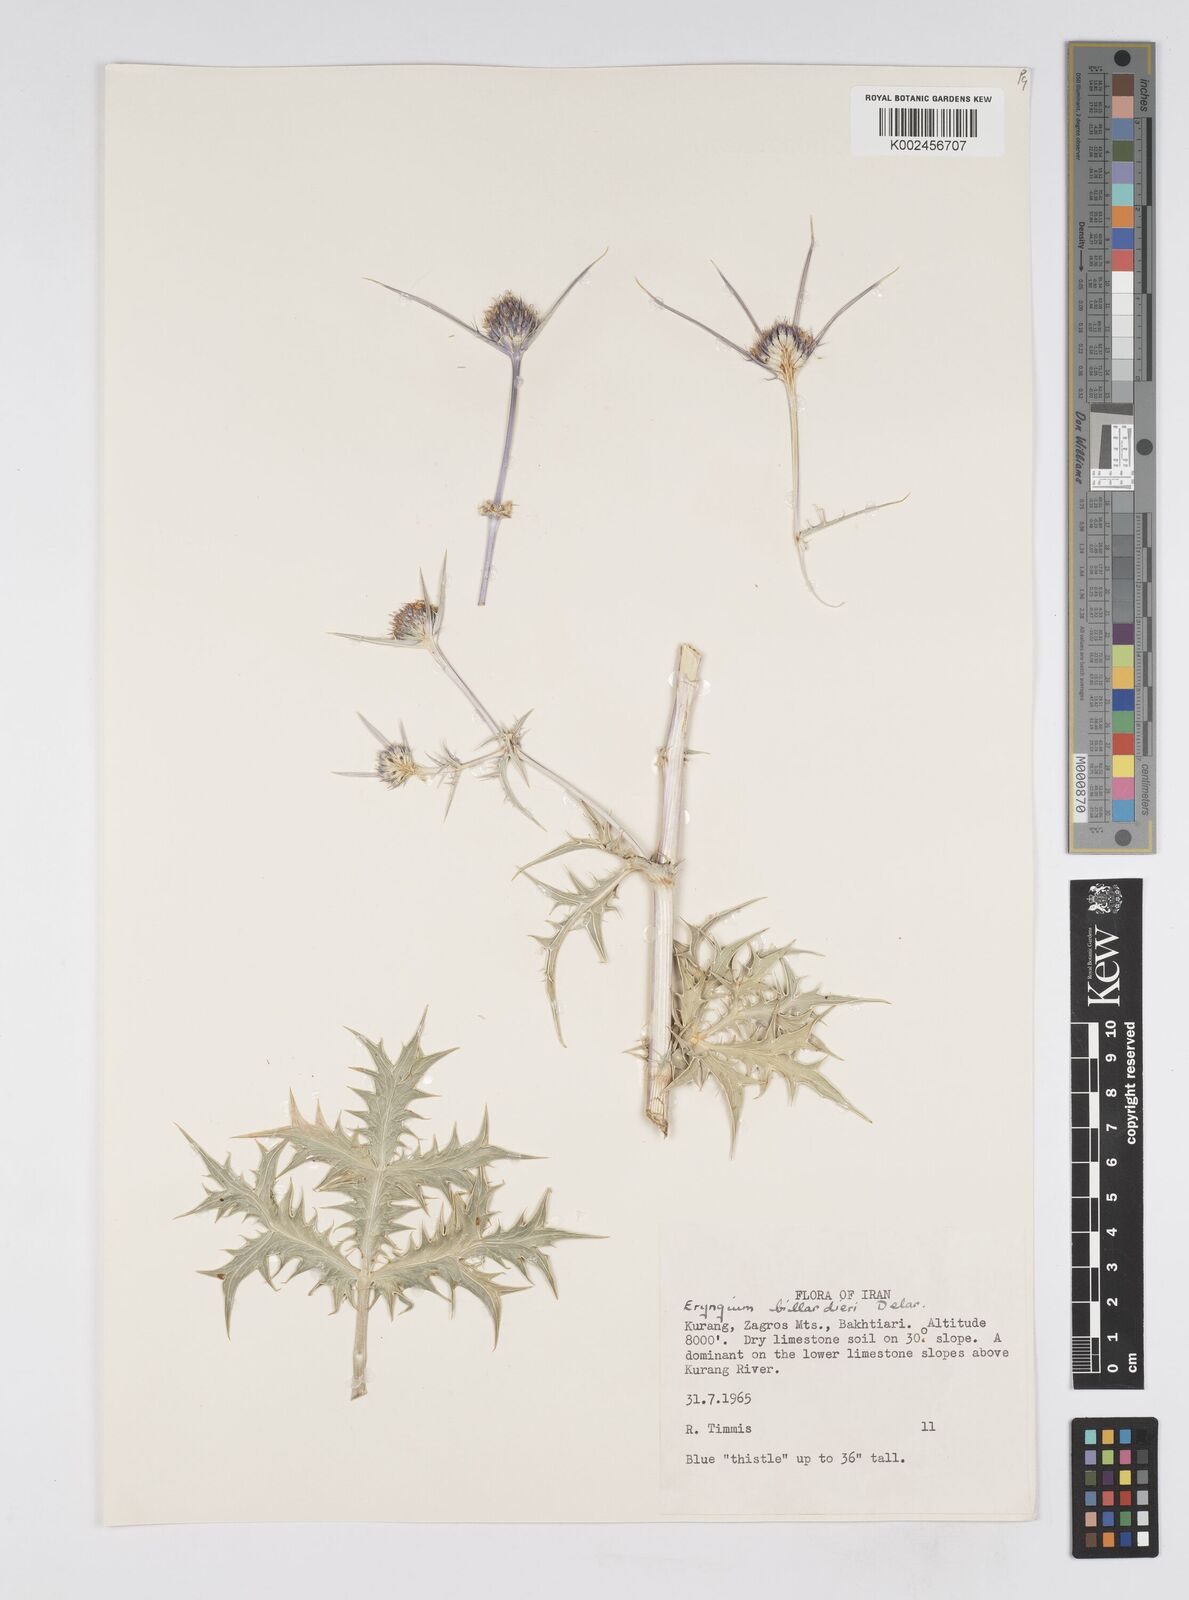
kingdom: Plantae
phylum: Tracheophyta
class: Magnoliopsida
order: Apiales
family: Apiaceae
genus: Eryngium
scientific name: Eryngium heldreichii
